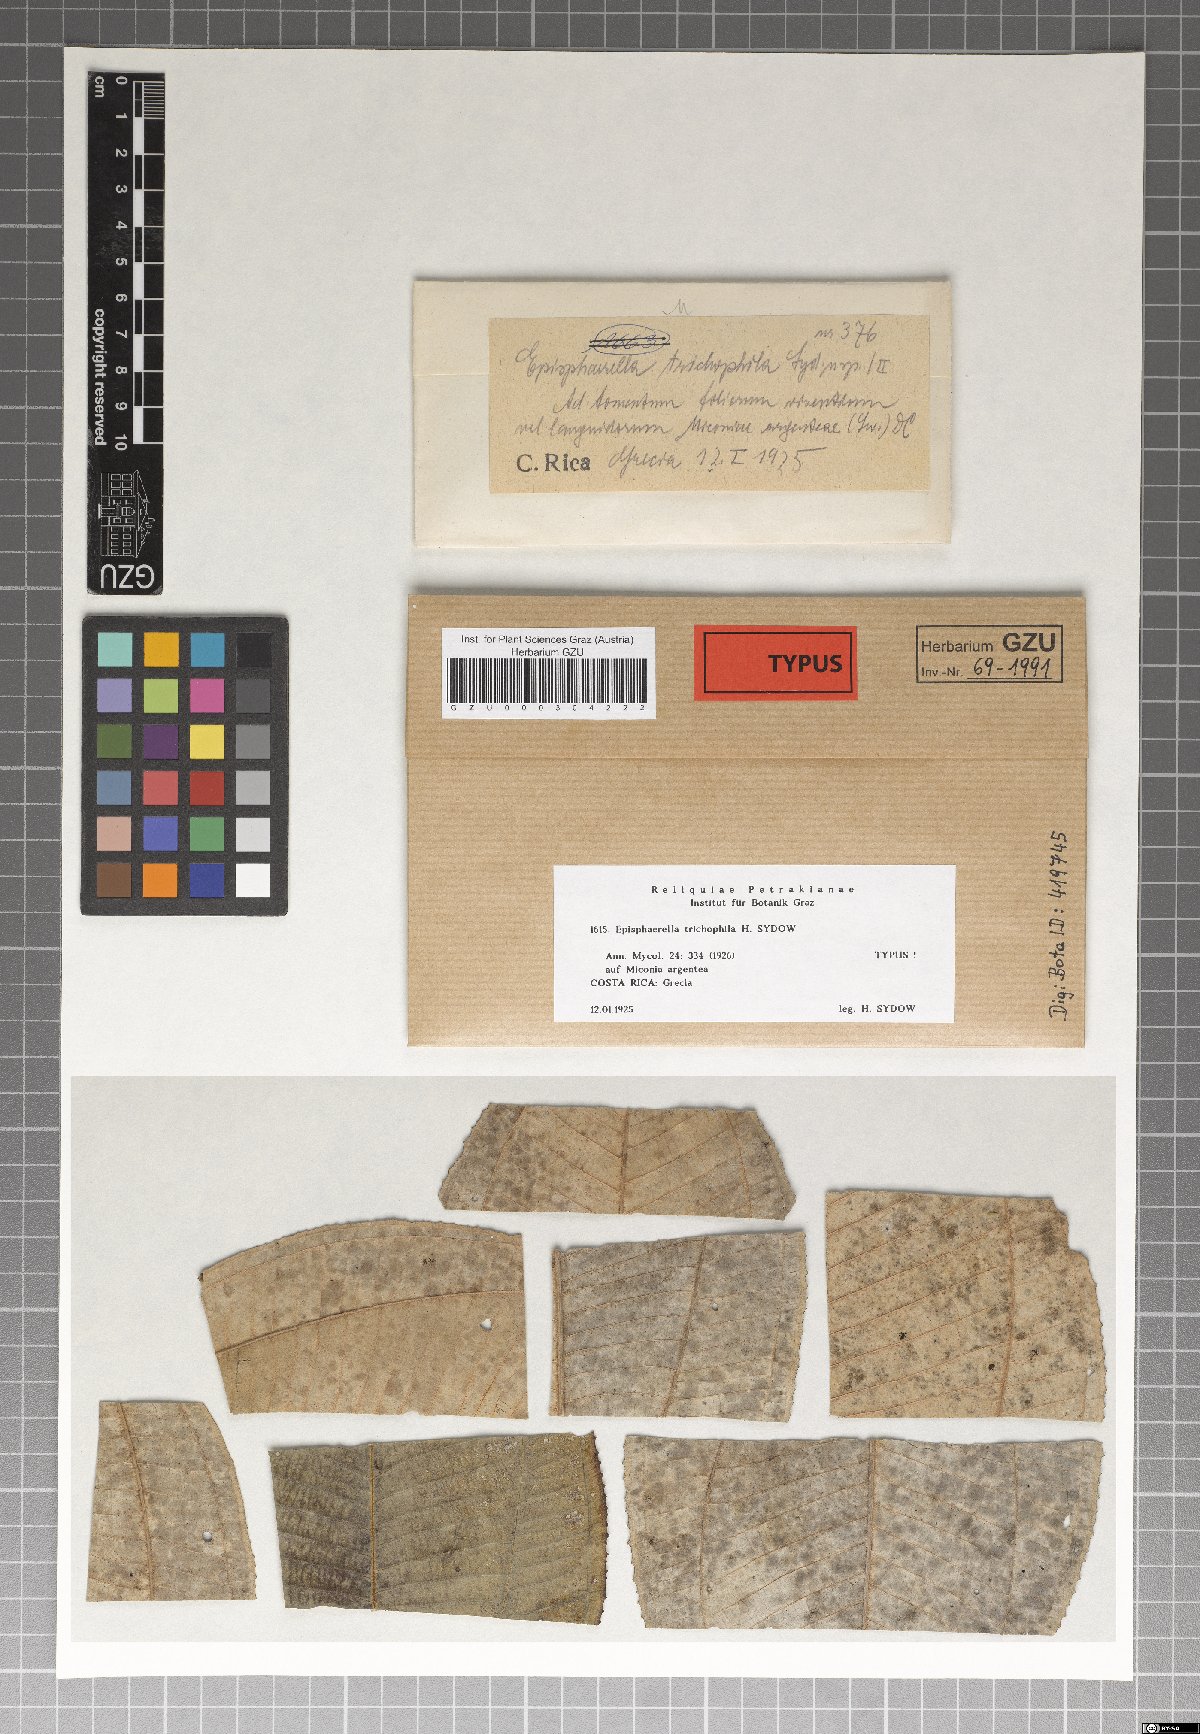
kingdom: Fungi
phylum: Ascomycota
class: Dothideomycetes
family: Pseudoperisporiaceae
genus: Episphaerella
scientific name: Episphaerella trichophila
